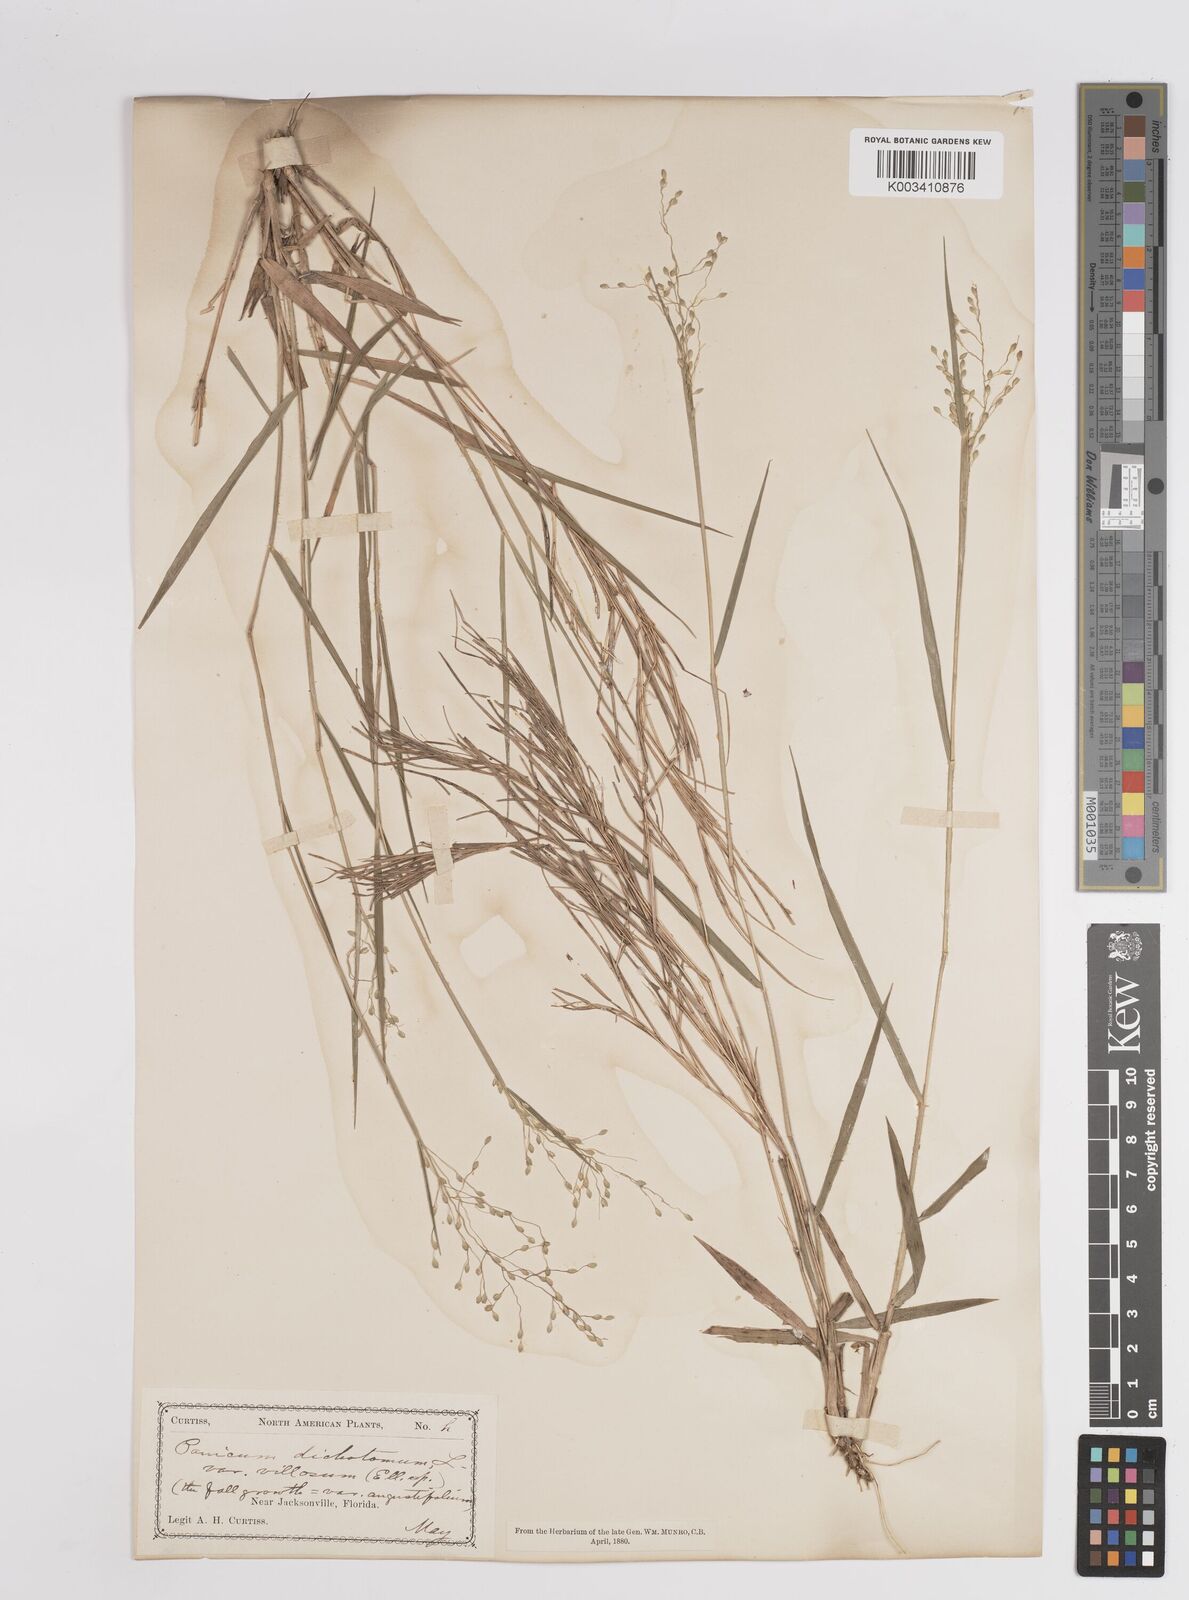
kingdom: Plantae
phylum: Tracheophyta
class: Liliopsida
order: Poales
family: Poaceae
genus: Dichanthelium
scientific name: Dichanthelium villosissimum
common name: White-haired panicgrass
